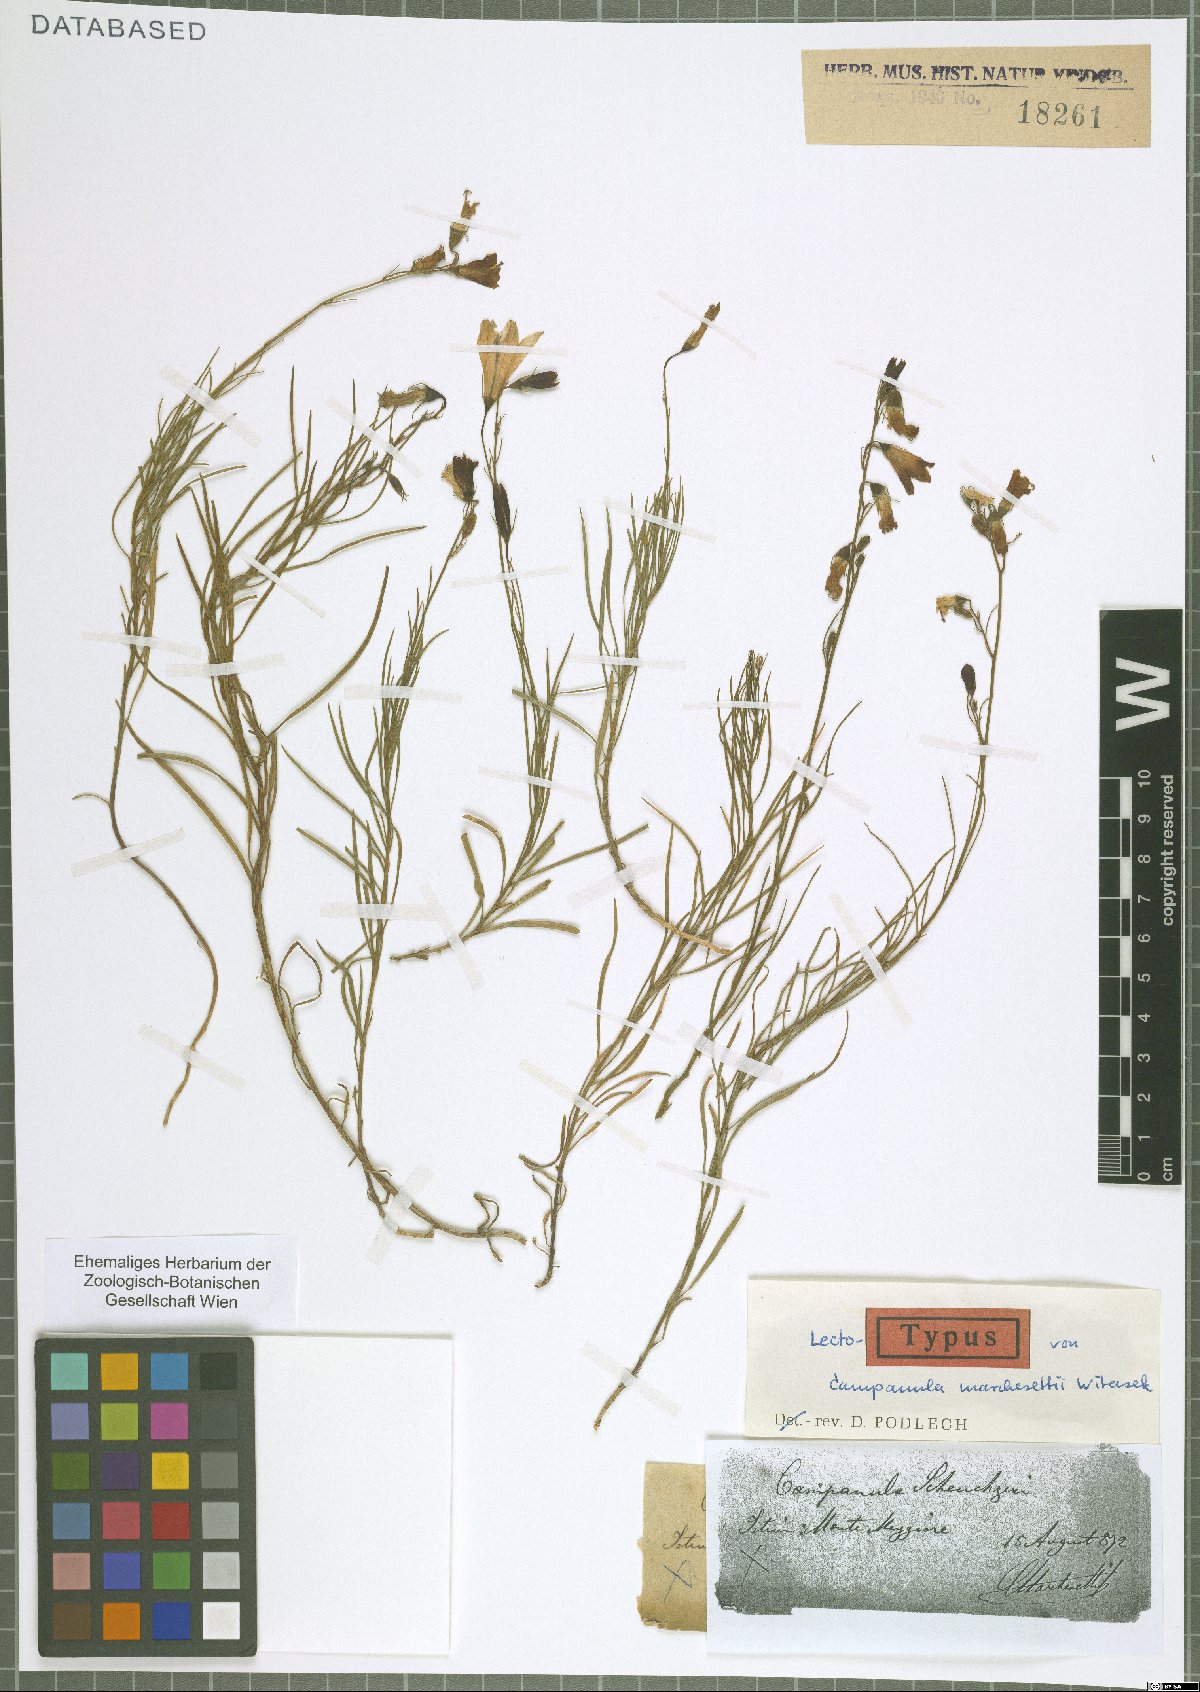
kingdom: Plantae
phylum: Tracheophyta
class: Magnoliopsida
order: Asterales
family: Campanulaceae
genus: Campanula
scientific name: Campanula marchesettii
